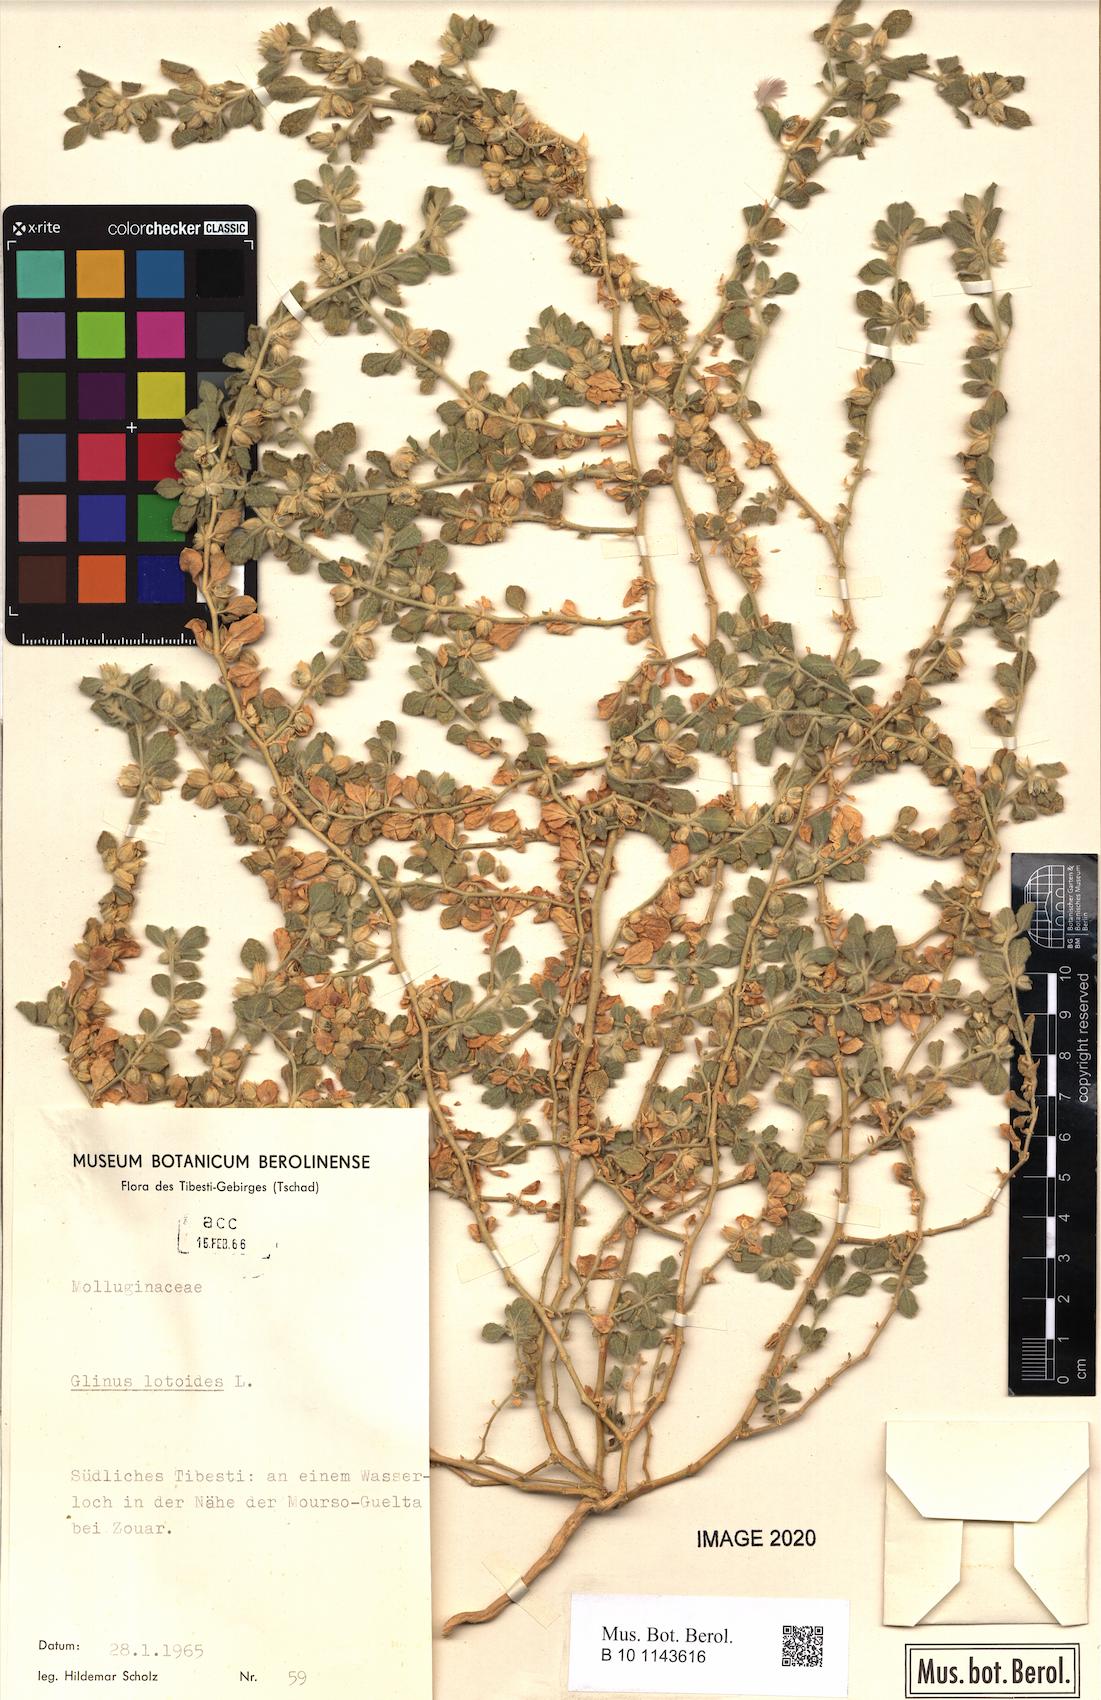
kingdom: Plantae
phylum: Tracheophyta
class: Magnoliopsida
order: Caryophyllales
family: Molluginaceae
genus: Glinus
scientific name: Glinus lotoides
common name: Lotus sweetjuice
